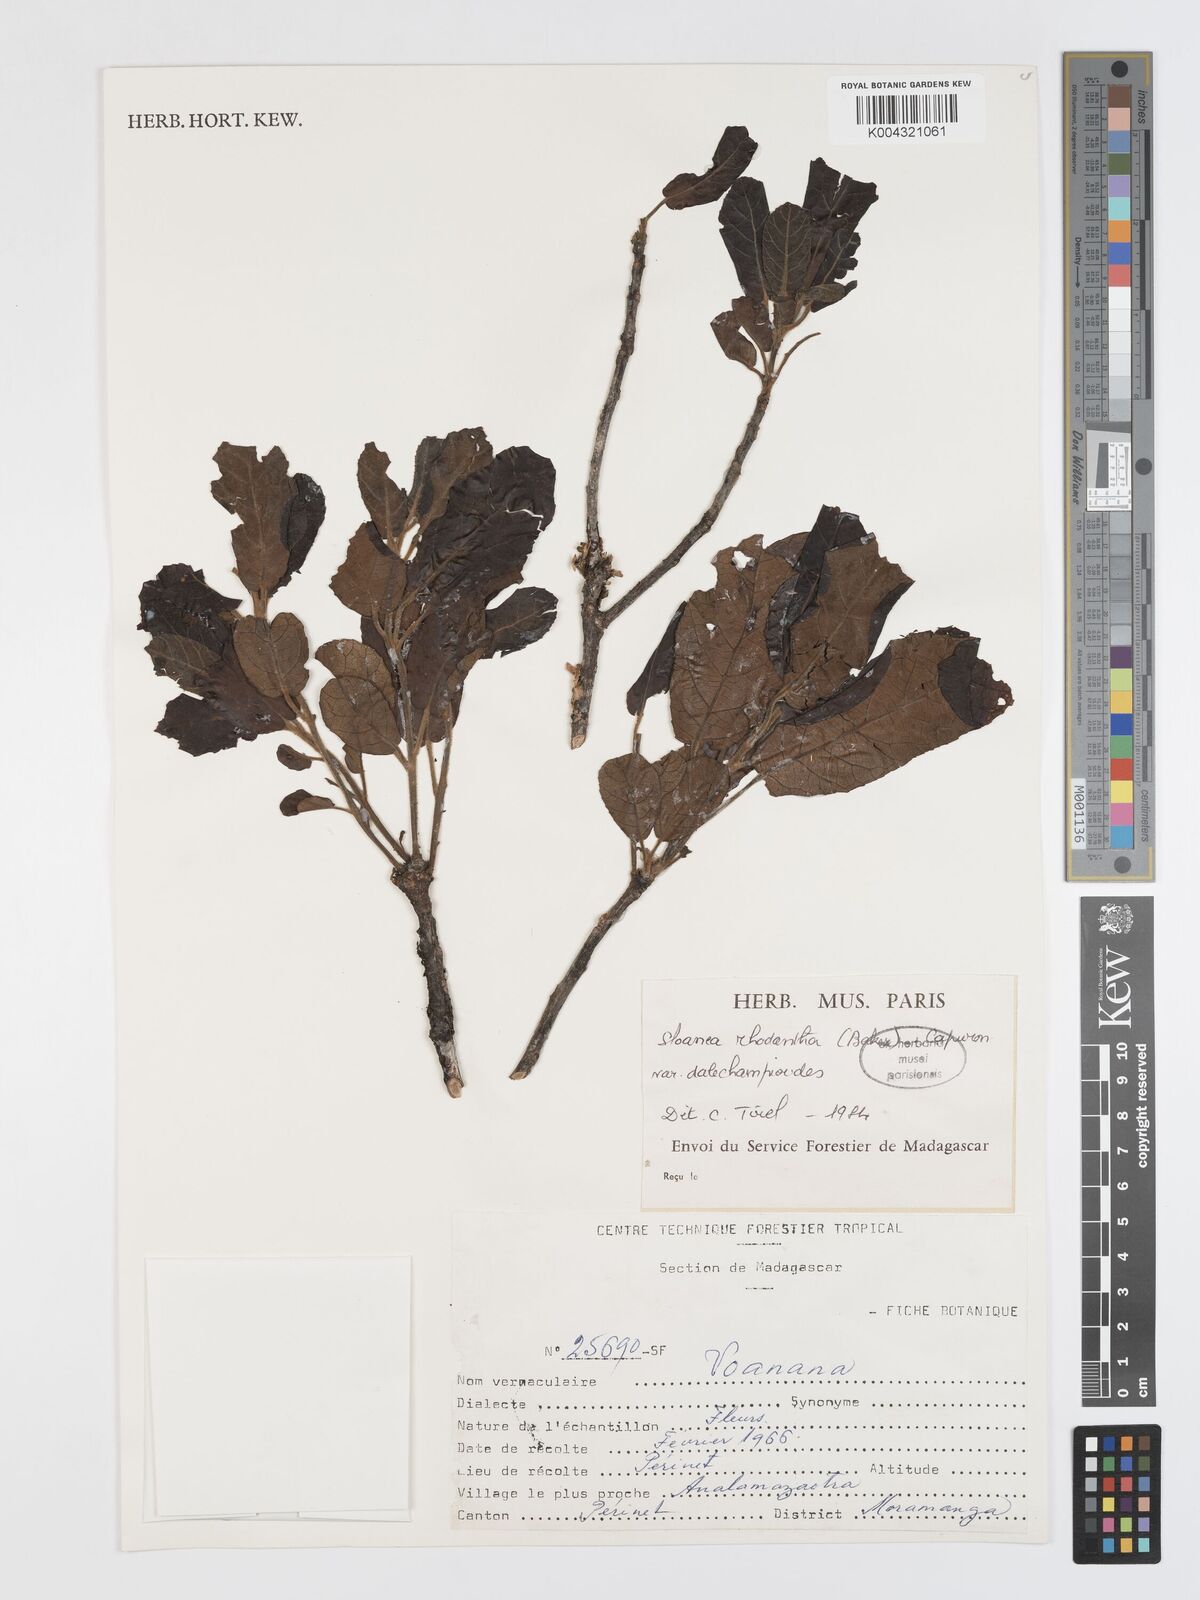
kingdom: Plantae
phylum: Tracheophyta
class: Magnoliopsida
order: Oxalidales
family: Elaeocarpaceae
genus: Sloanea
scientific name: Sloanea rhodantha
